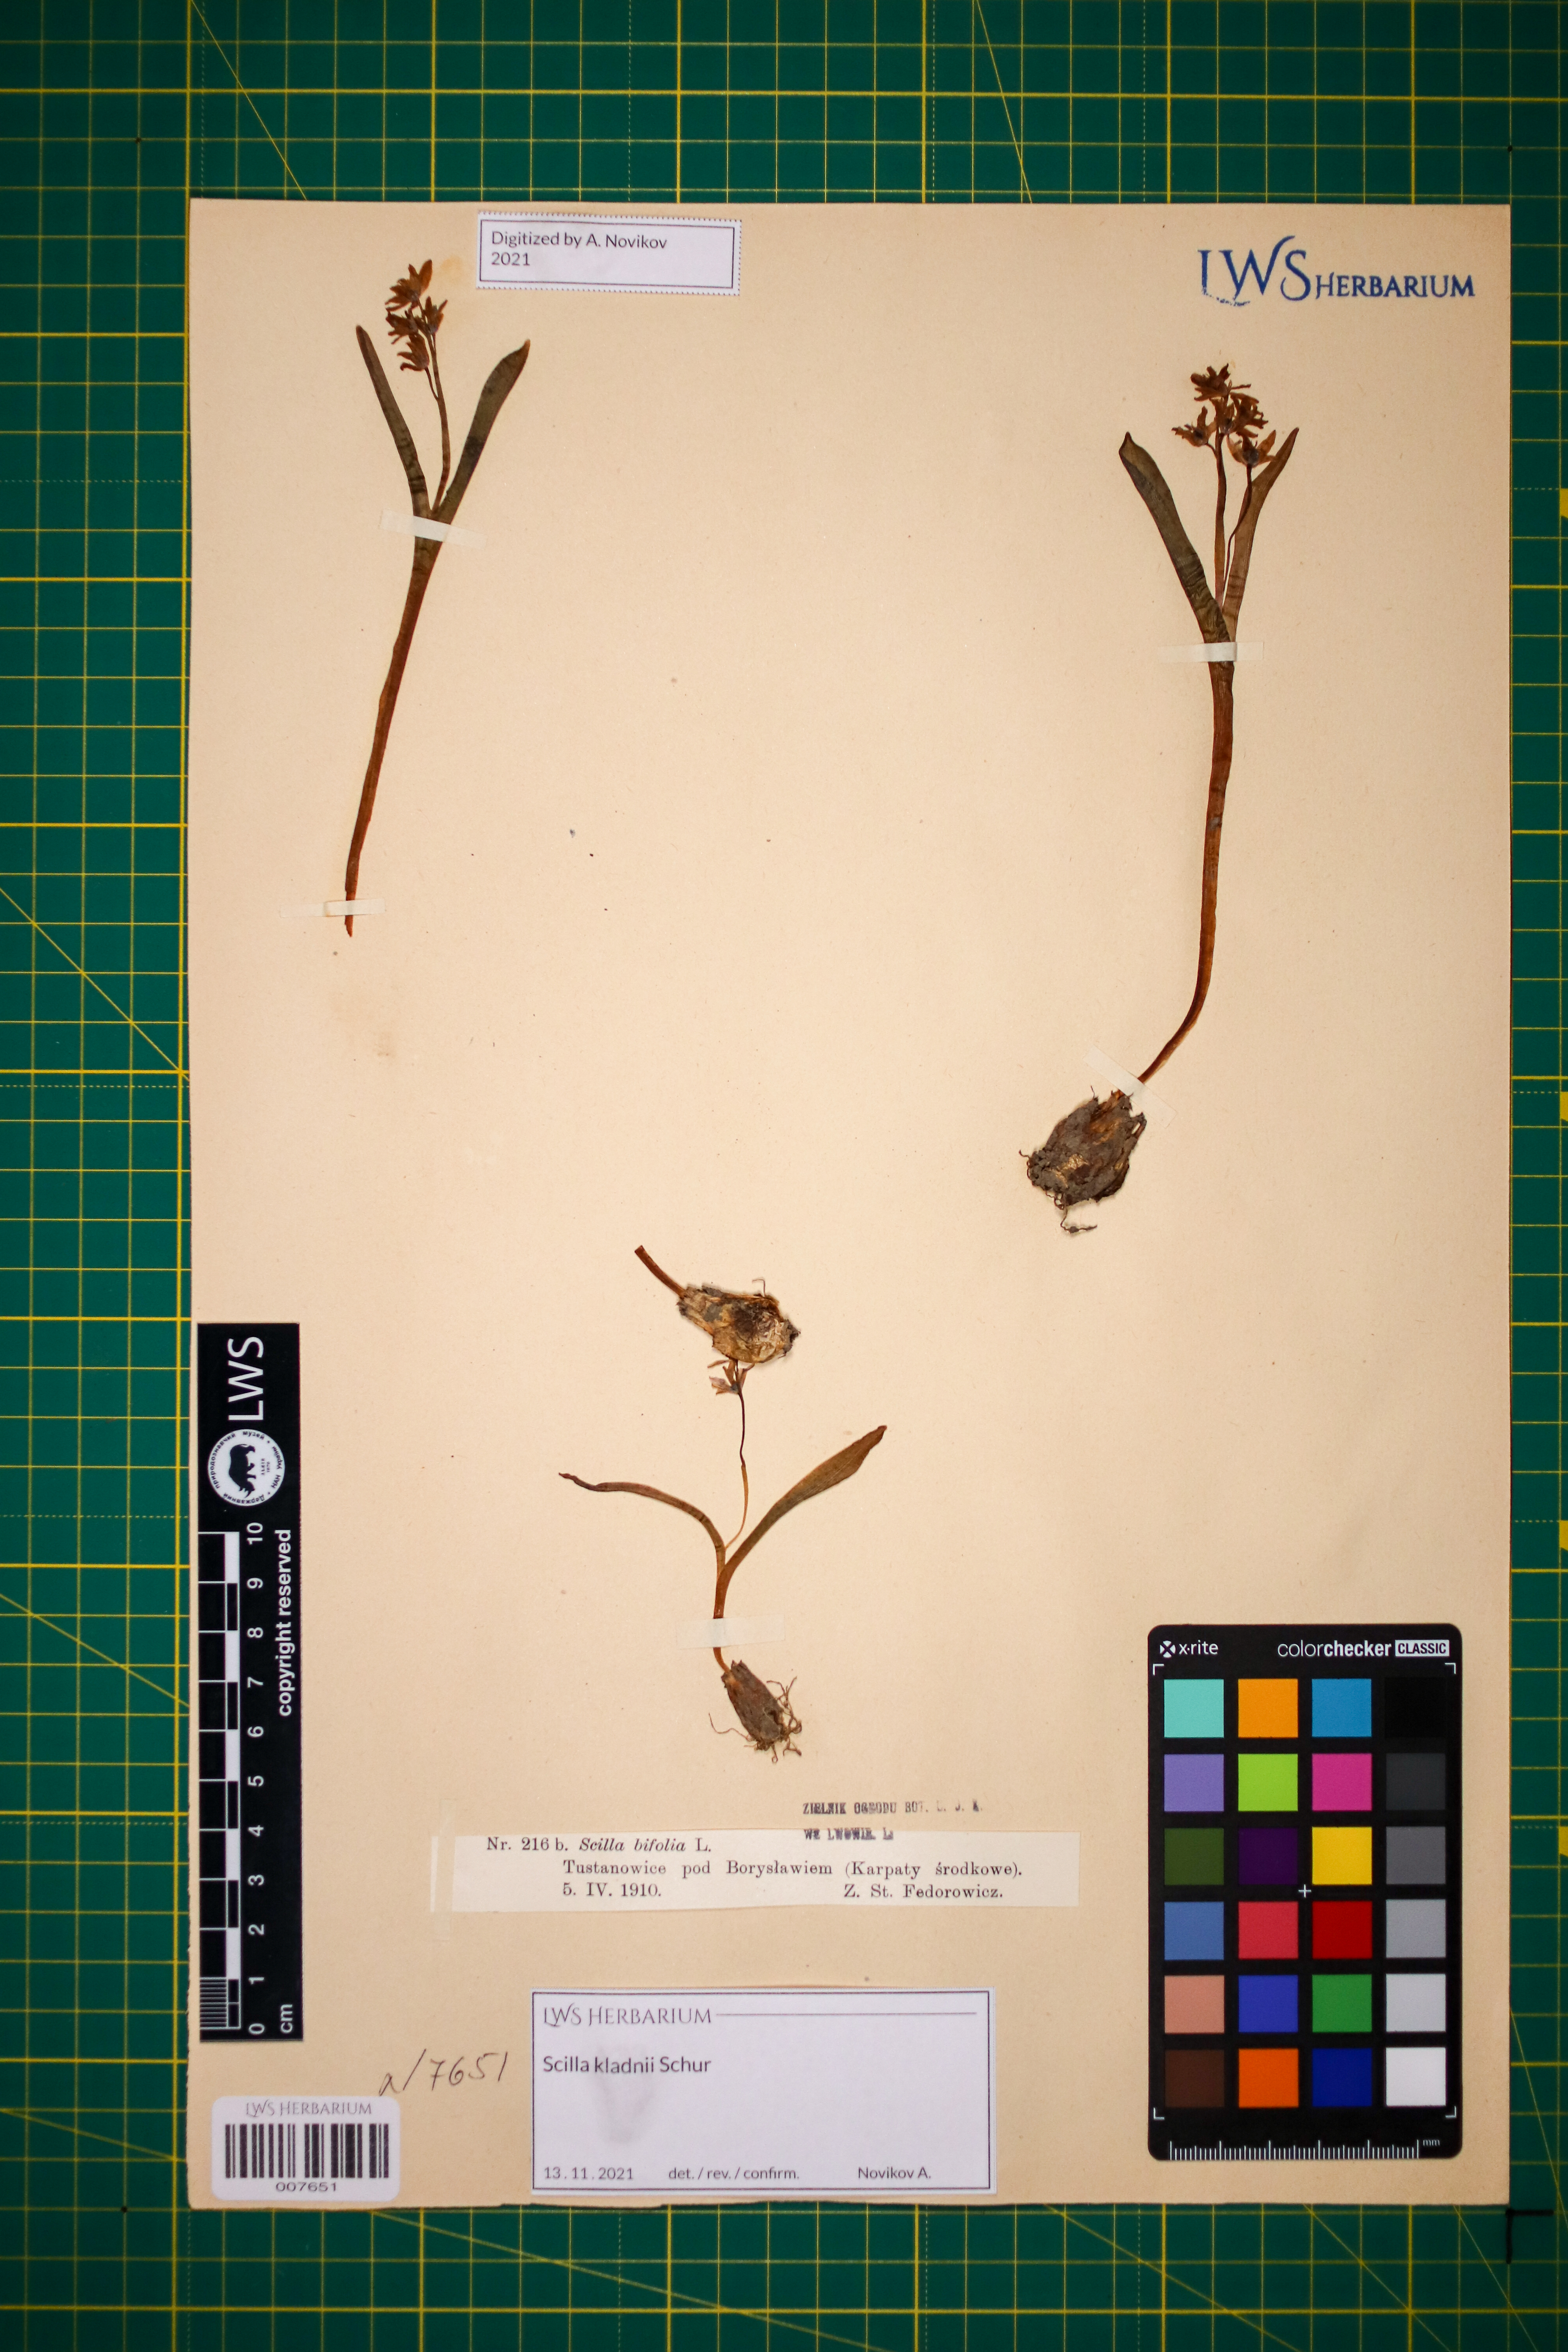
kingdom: Plantae
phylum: Tracheophyta
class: Liliopsida
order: Asparagales
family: Asparagaceae
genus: Scilla
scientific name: Scilla kladnii
